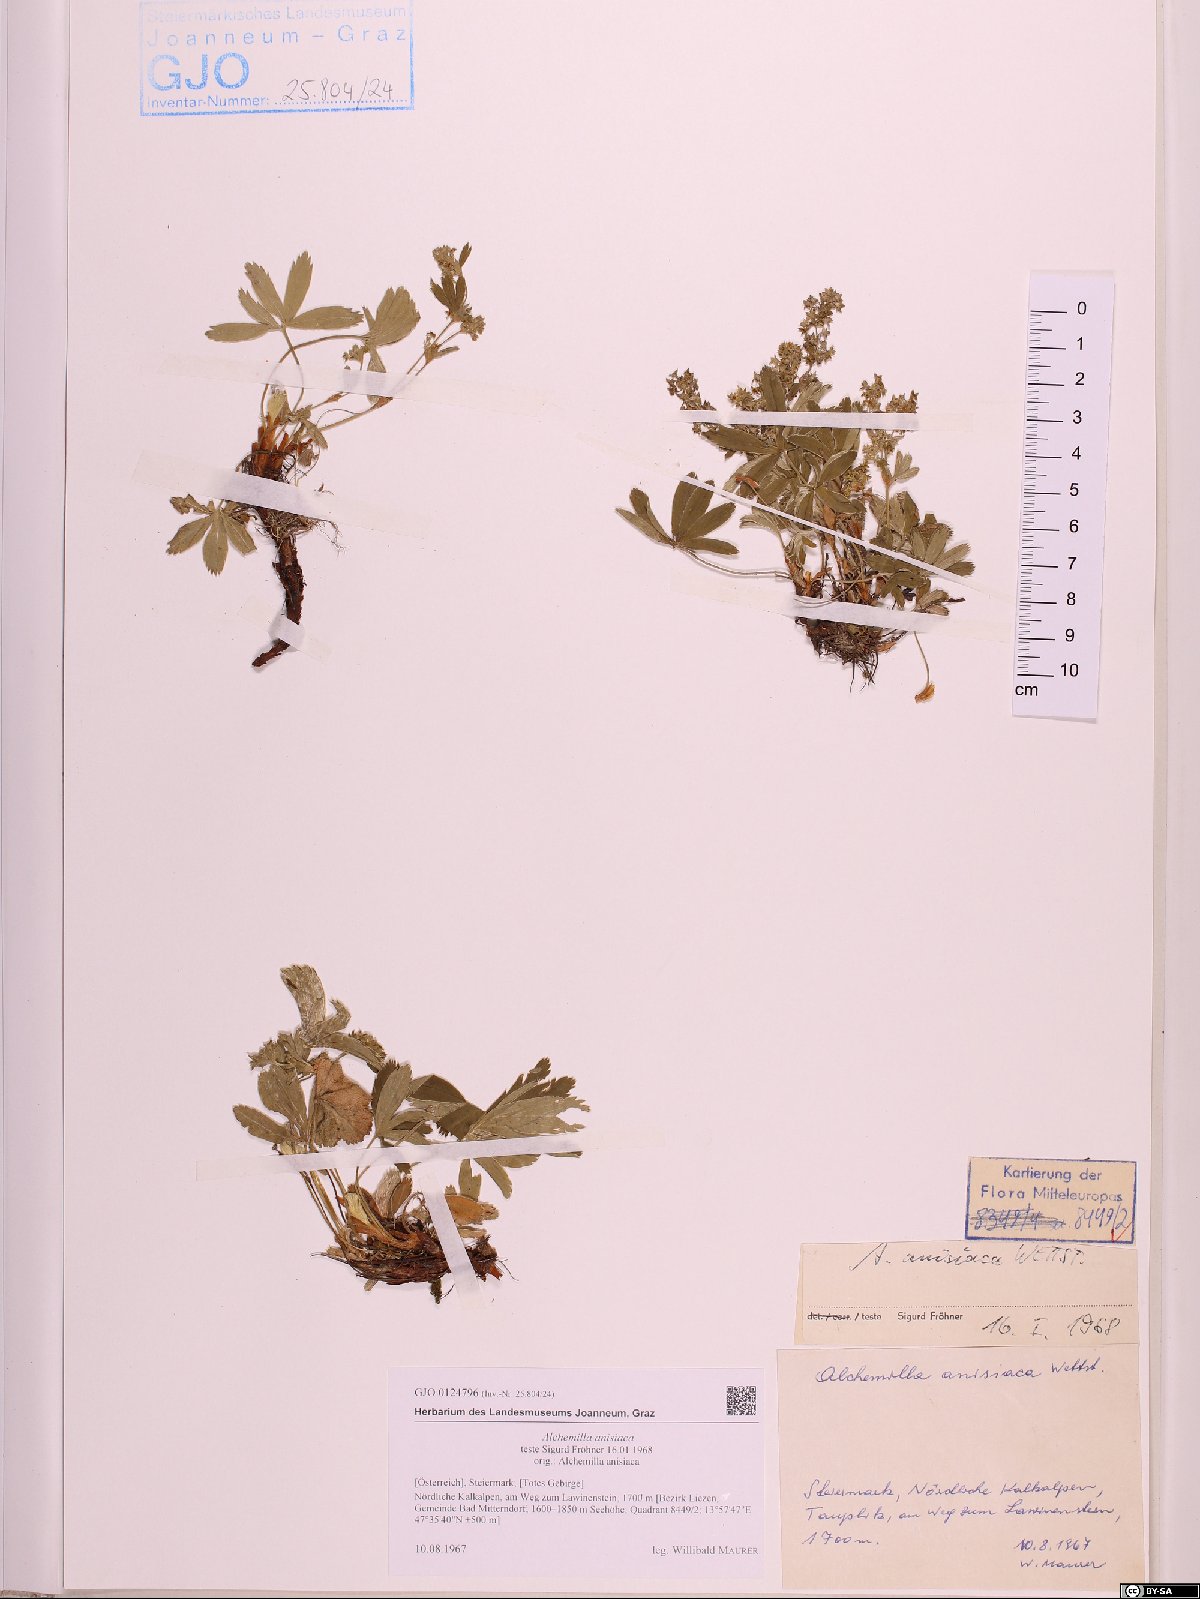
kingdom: Plantae
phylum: Tracheophyta
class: Magnoliopsida
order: Rosales
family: Rosaceae
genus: Alchemilla
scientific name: Alchemilla anisiaca
